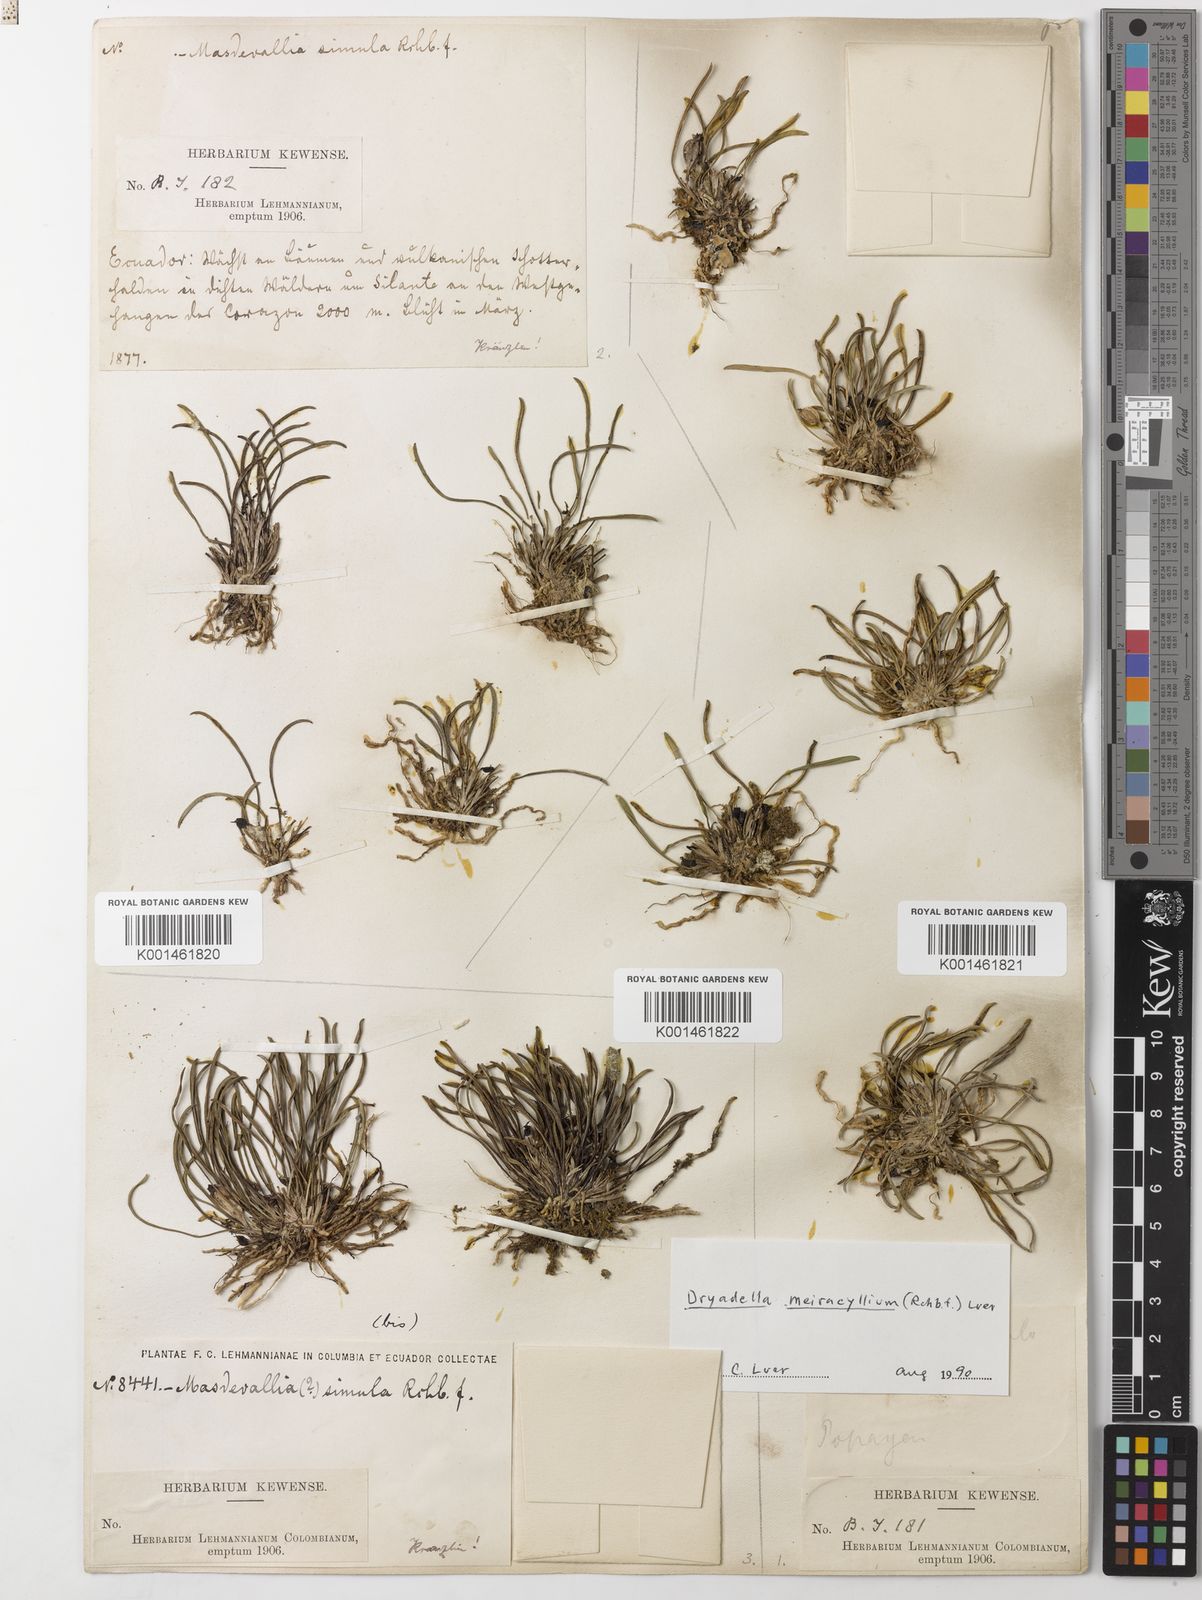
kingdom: Plantae
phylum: Tracheophyta
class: Liliopsida
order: Asparagales
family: Orchidaceae
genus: Dryadella
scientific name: Dryadella meiracyllium
